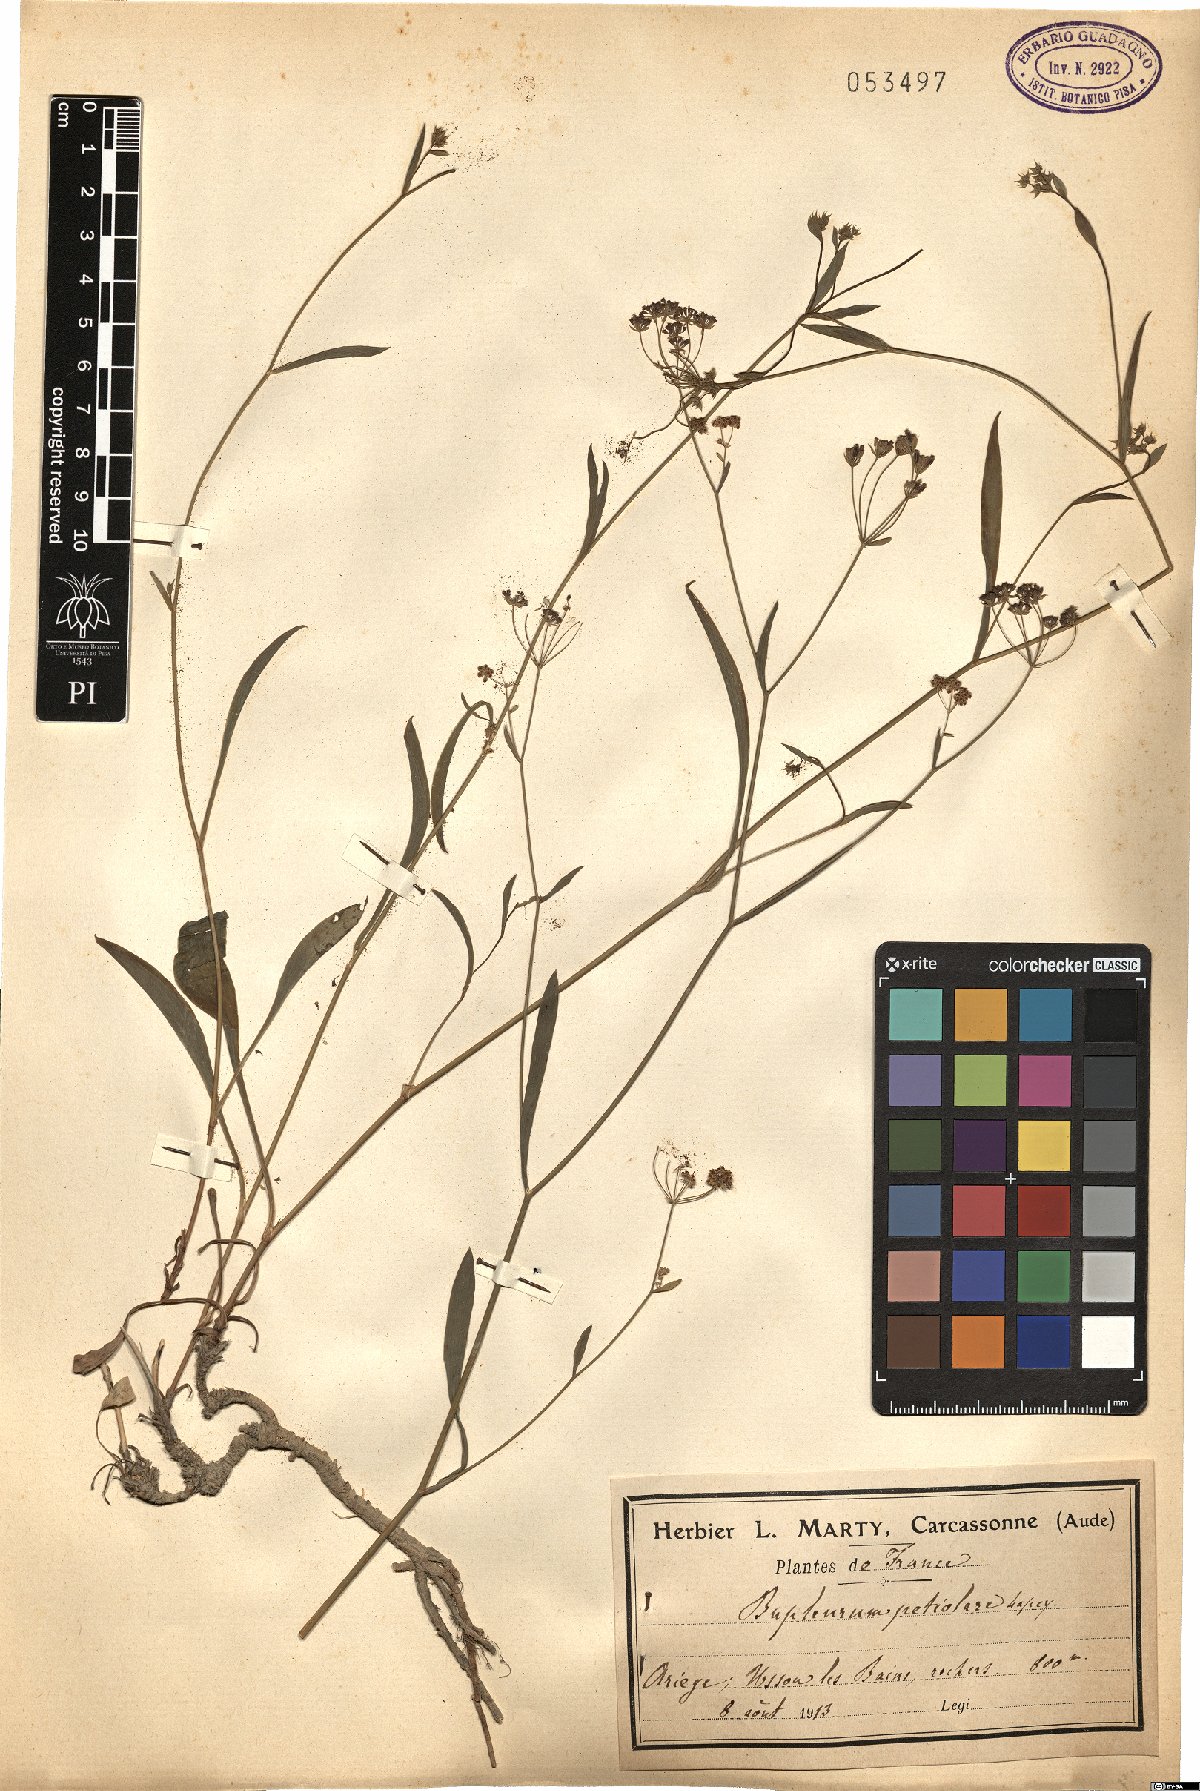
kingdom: Plantae
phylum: Tracheophyta
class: Magnoliopsida
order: Apiales
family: Apiaceae
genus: Bupleurum
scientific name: Bupleurum falcatum
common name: Sickle-leaved hare's-ear
